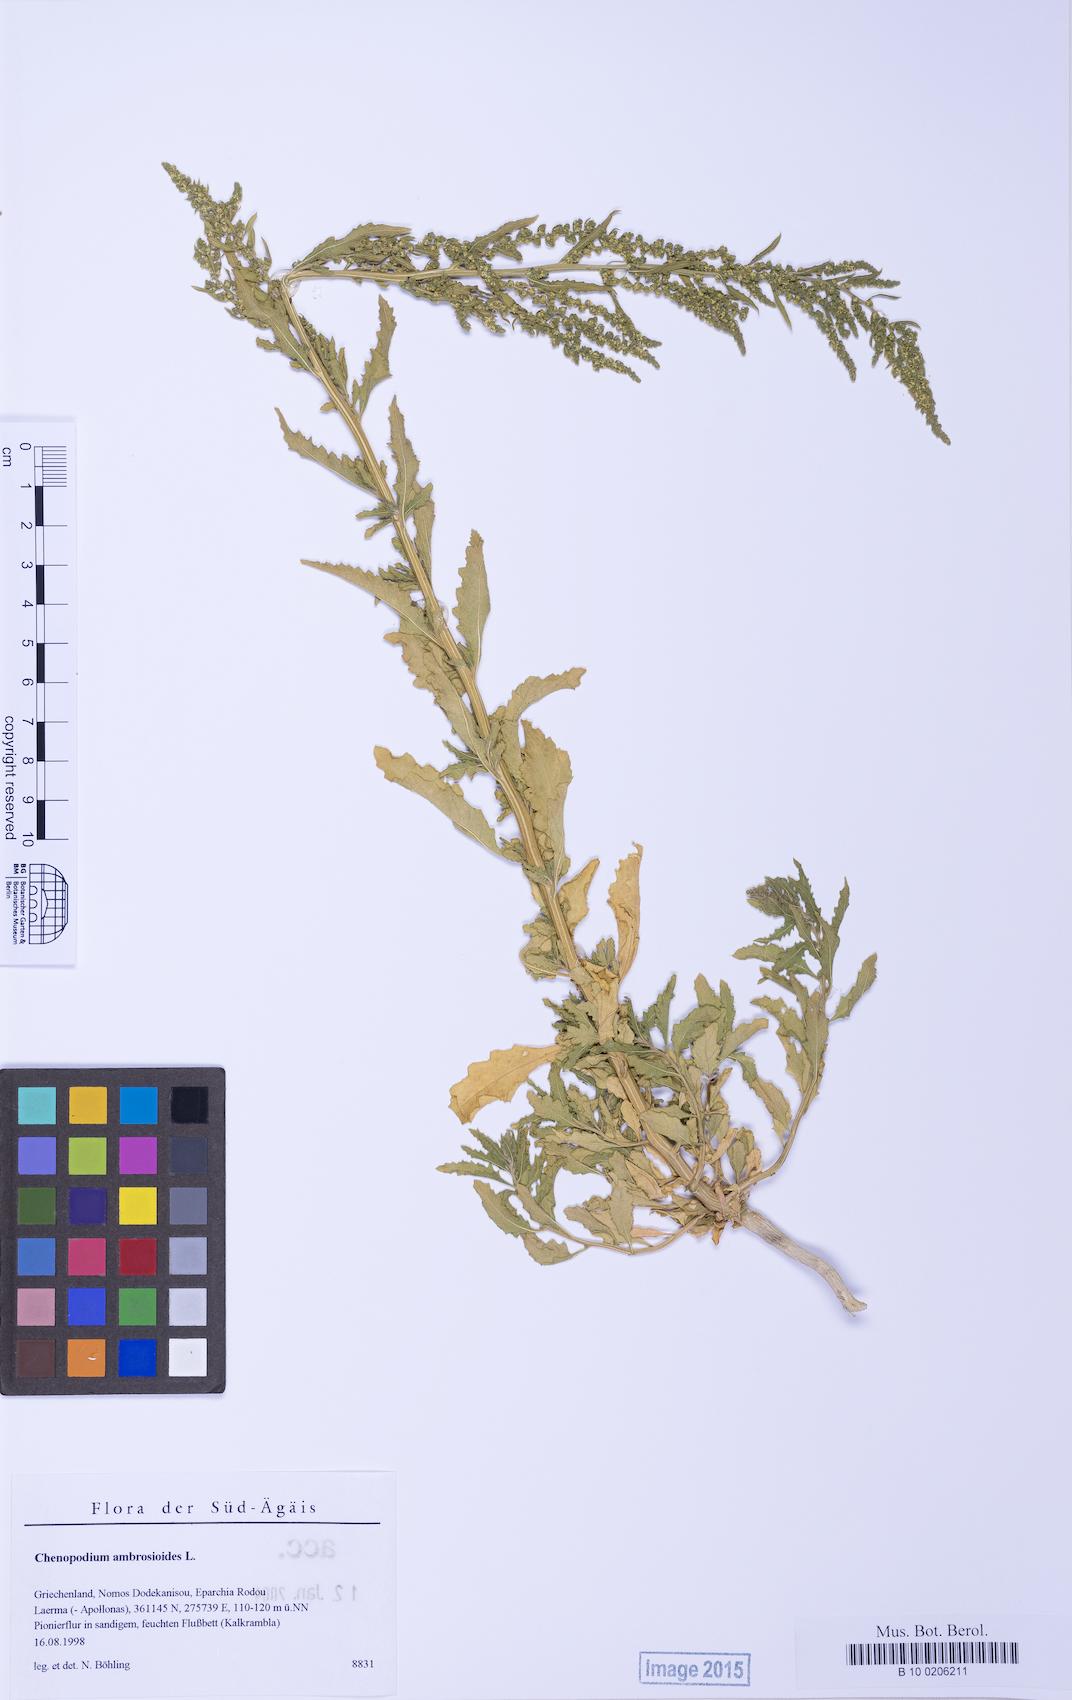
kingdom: Plantae
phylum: Tracheophyta
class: Magnoliopsida
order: Caryophyllales
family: Amaranthaceae
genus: Dysphania
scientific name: Dysphania ambrosioides
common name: Wormseed
